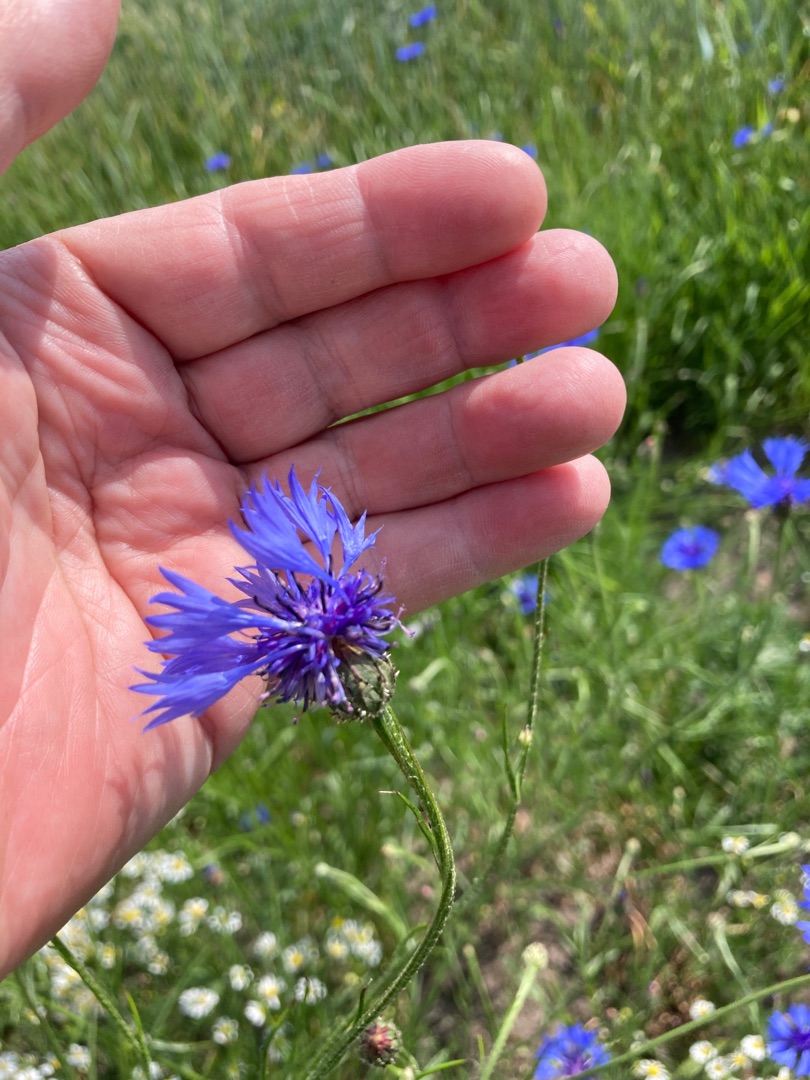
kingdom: Plantae
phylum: Tracheophyta
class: Magnoliopsida
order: Asterales
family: Asteraceae
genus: Centaurea
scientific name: Centaurea cyanus
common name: Kornblomst
